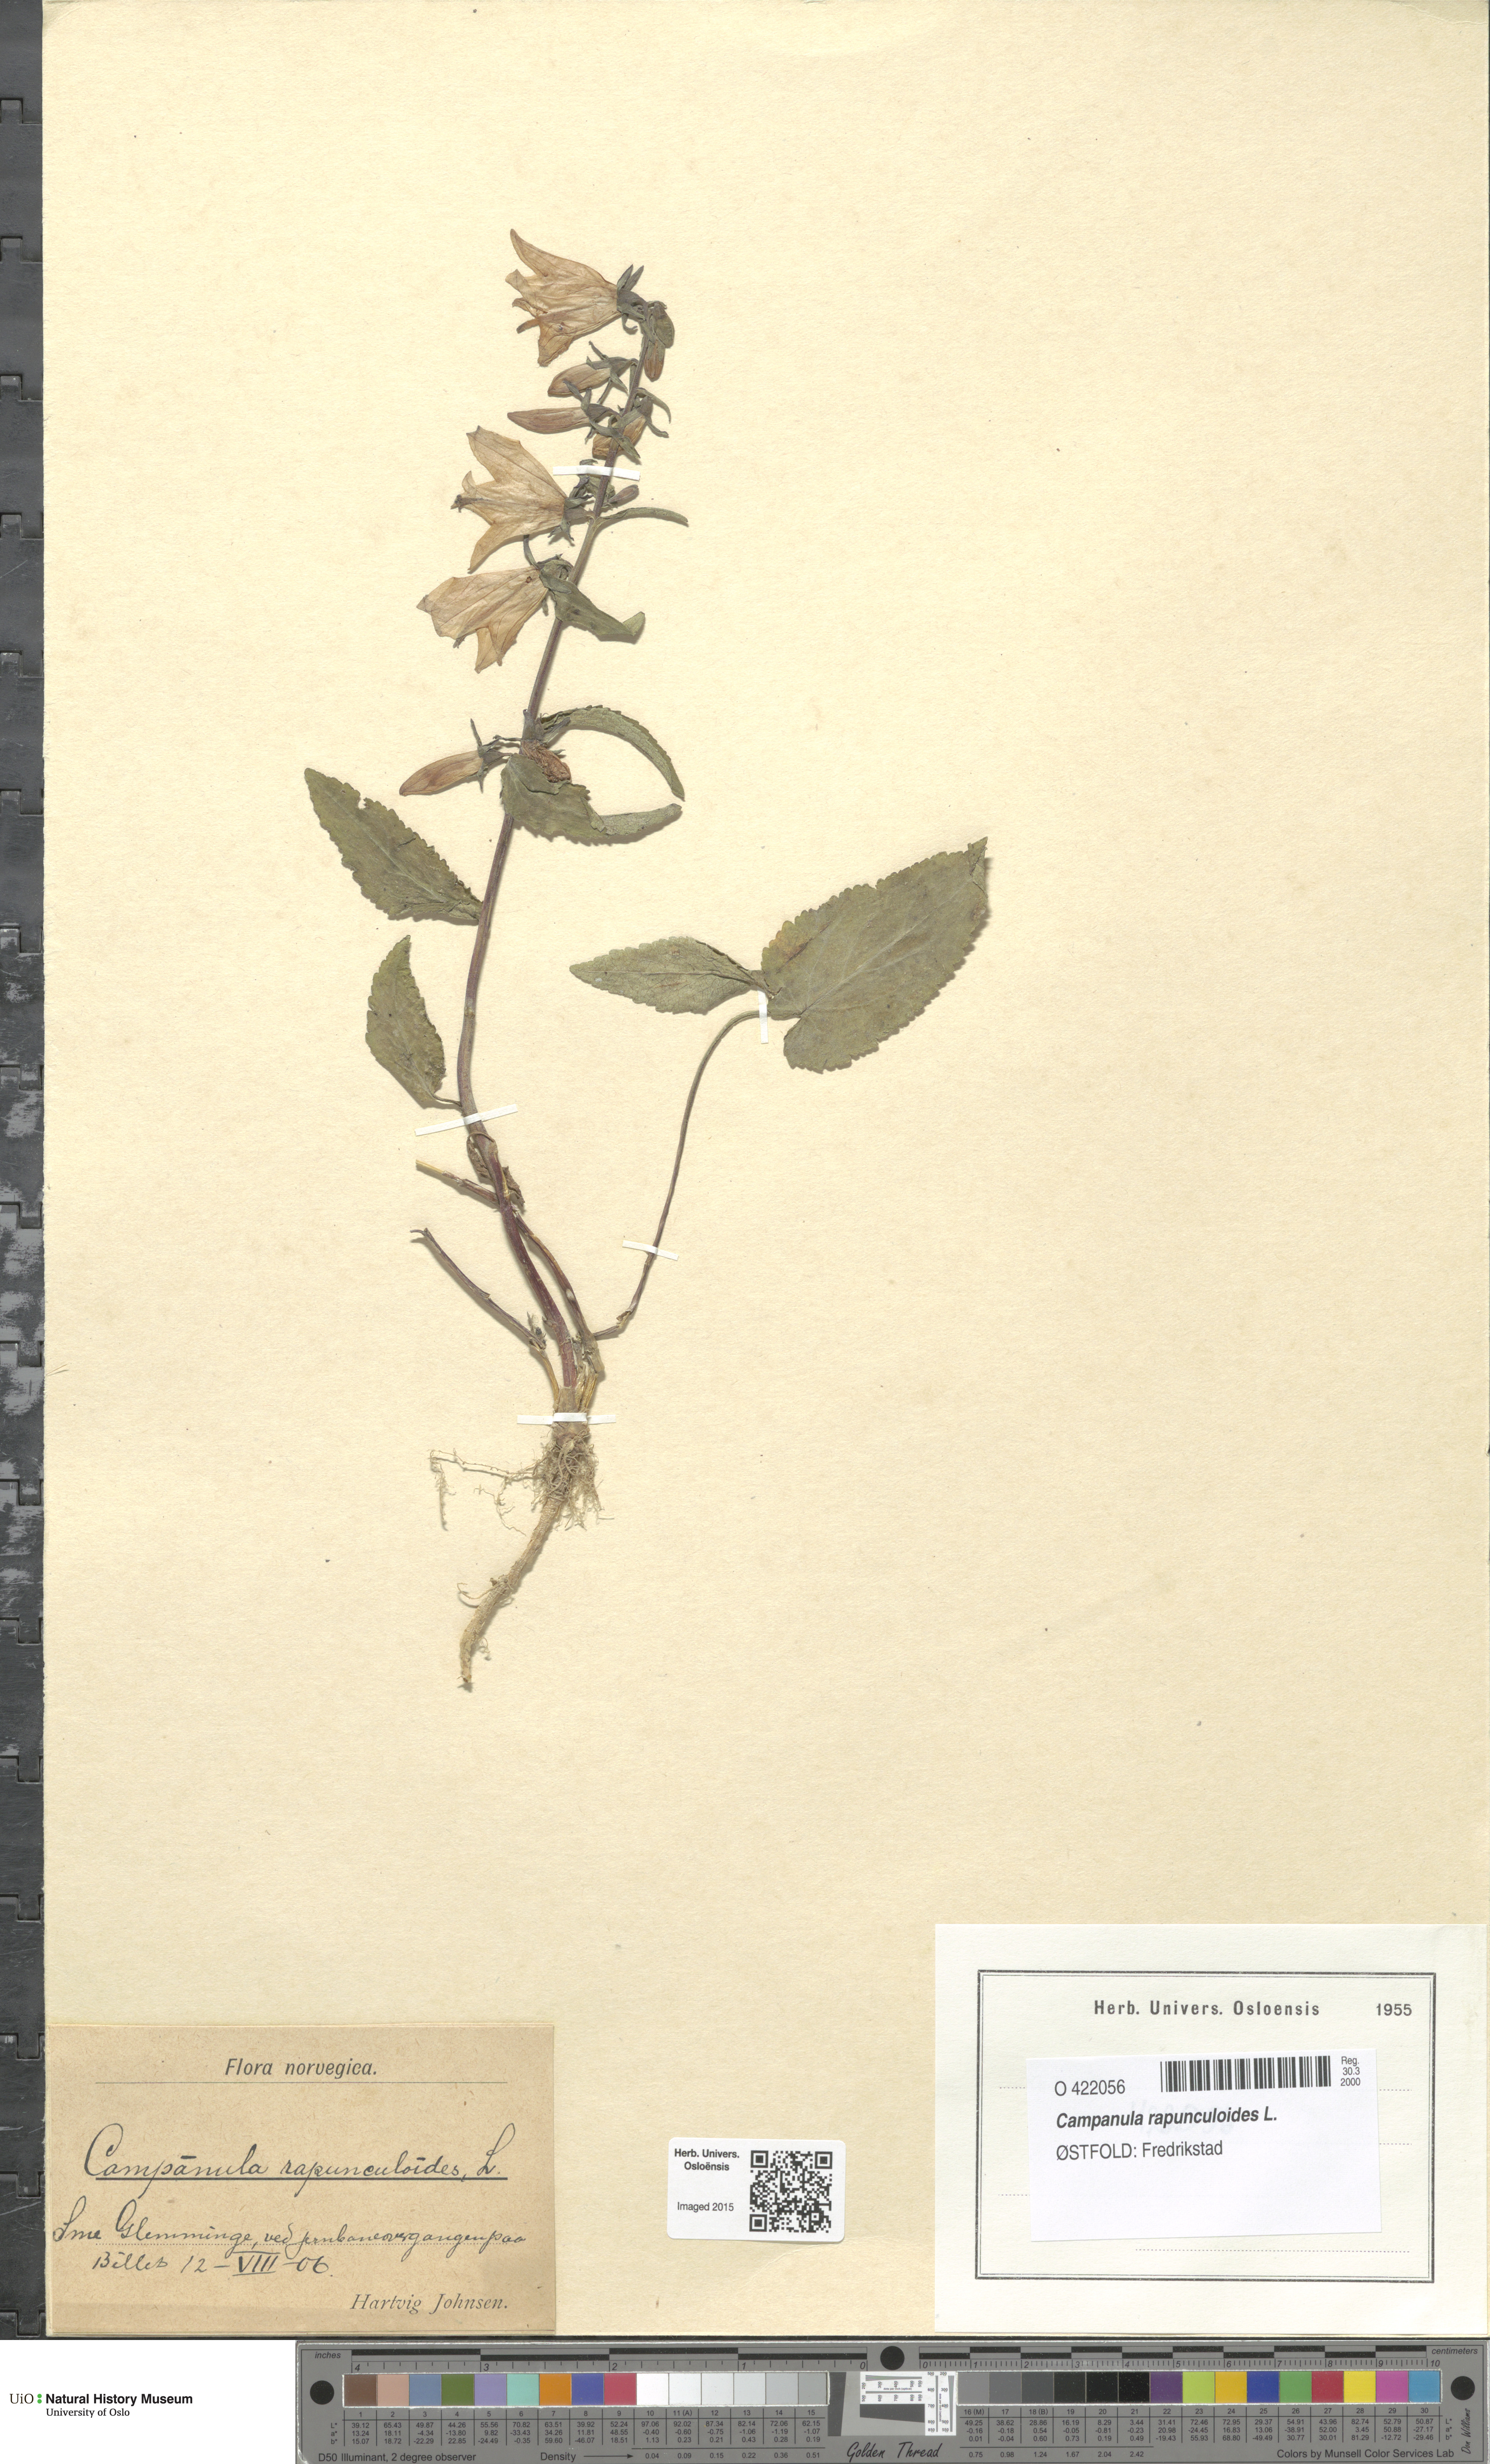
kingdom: Plantae
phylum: Tracheophyta
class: Magnoliopsida
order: Asterales
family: Campanulaceae
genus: Campanula
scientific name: Campanula rapunculoides
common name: Creeping bellflower
